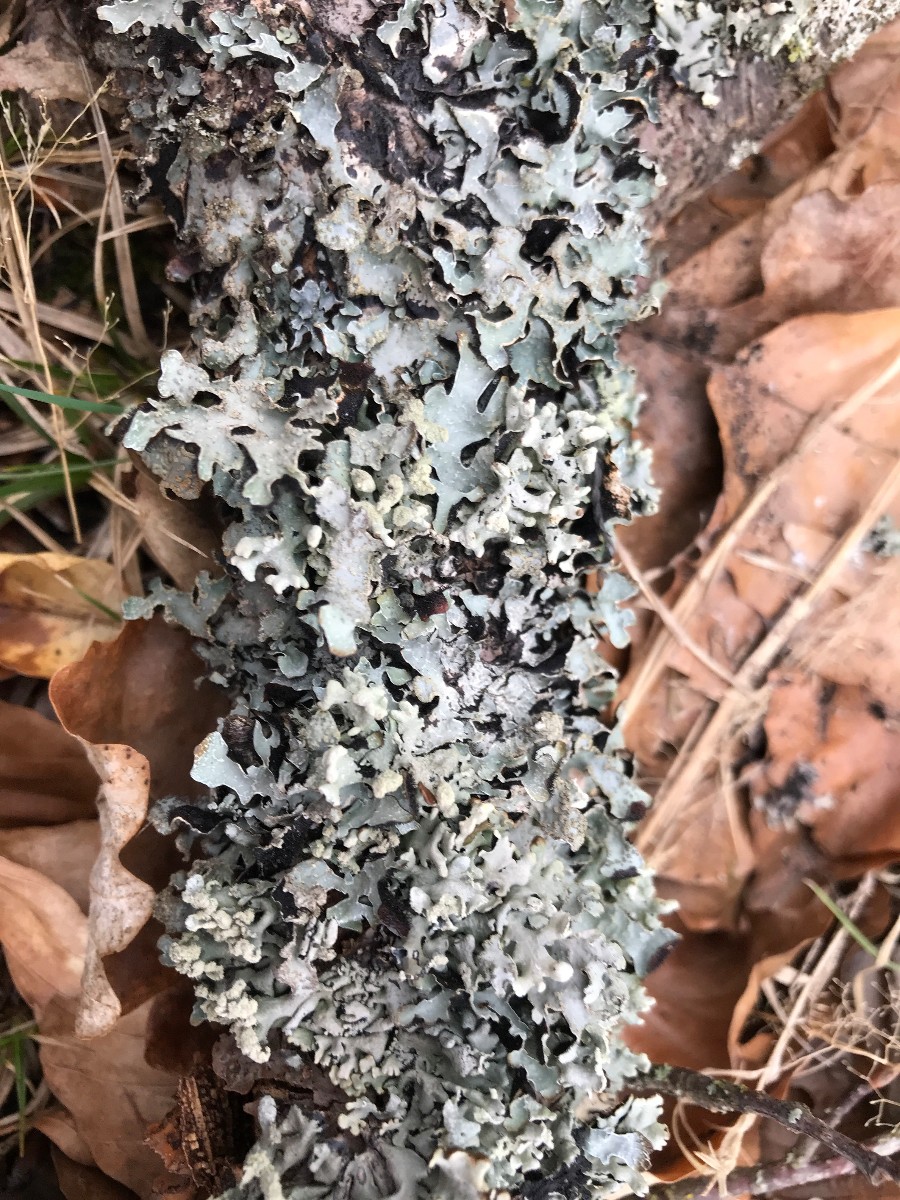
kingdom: Fungi
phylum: Ascomycota
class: Lecanoromycetes
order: Lecanorales
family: Parmeliaceae
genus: Parmelia
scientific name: Parmelia sulcata
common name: rynket skållav
